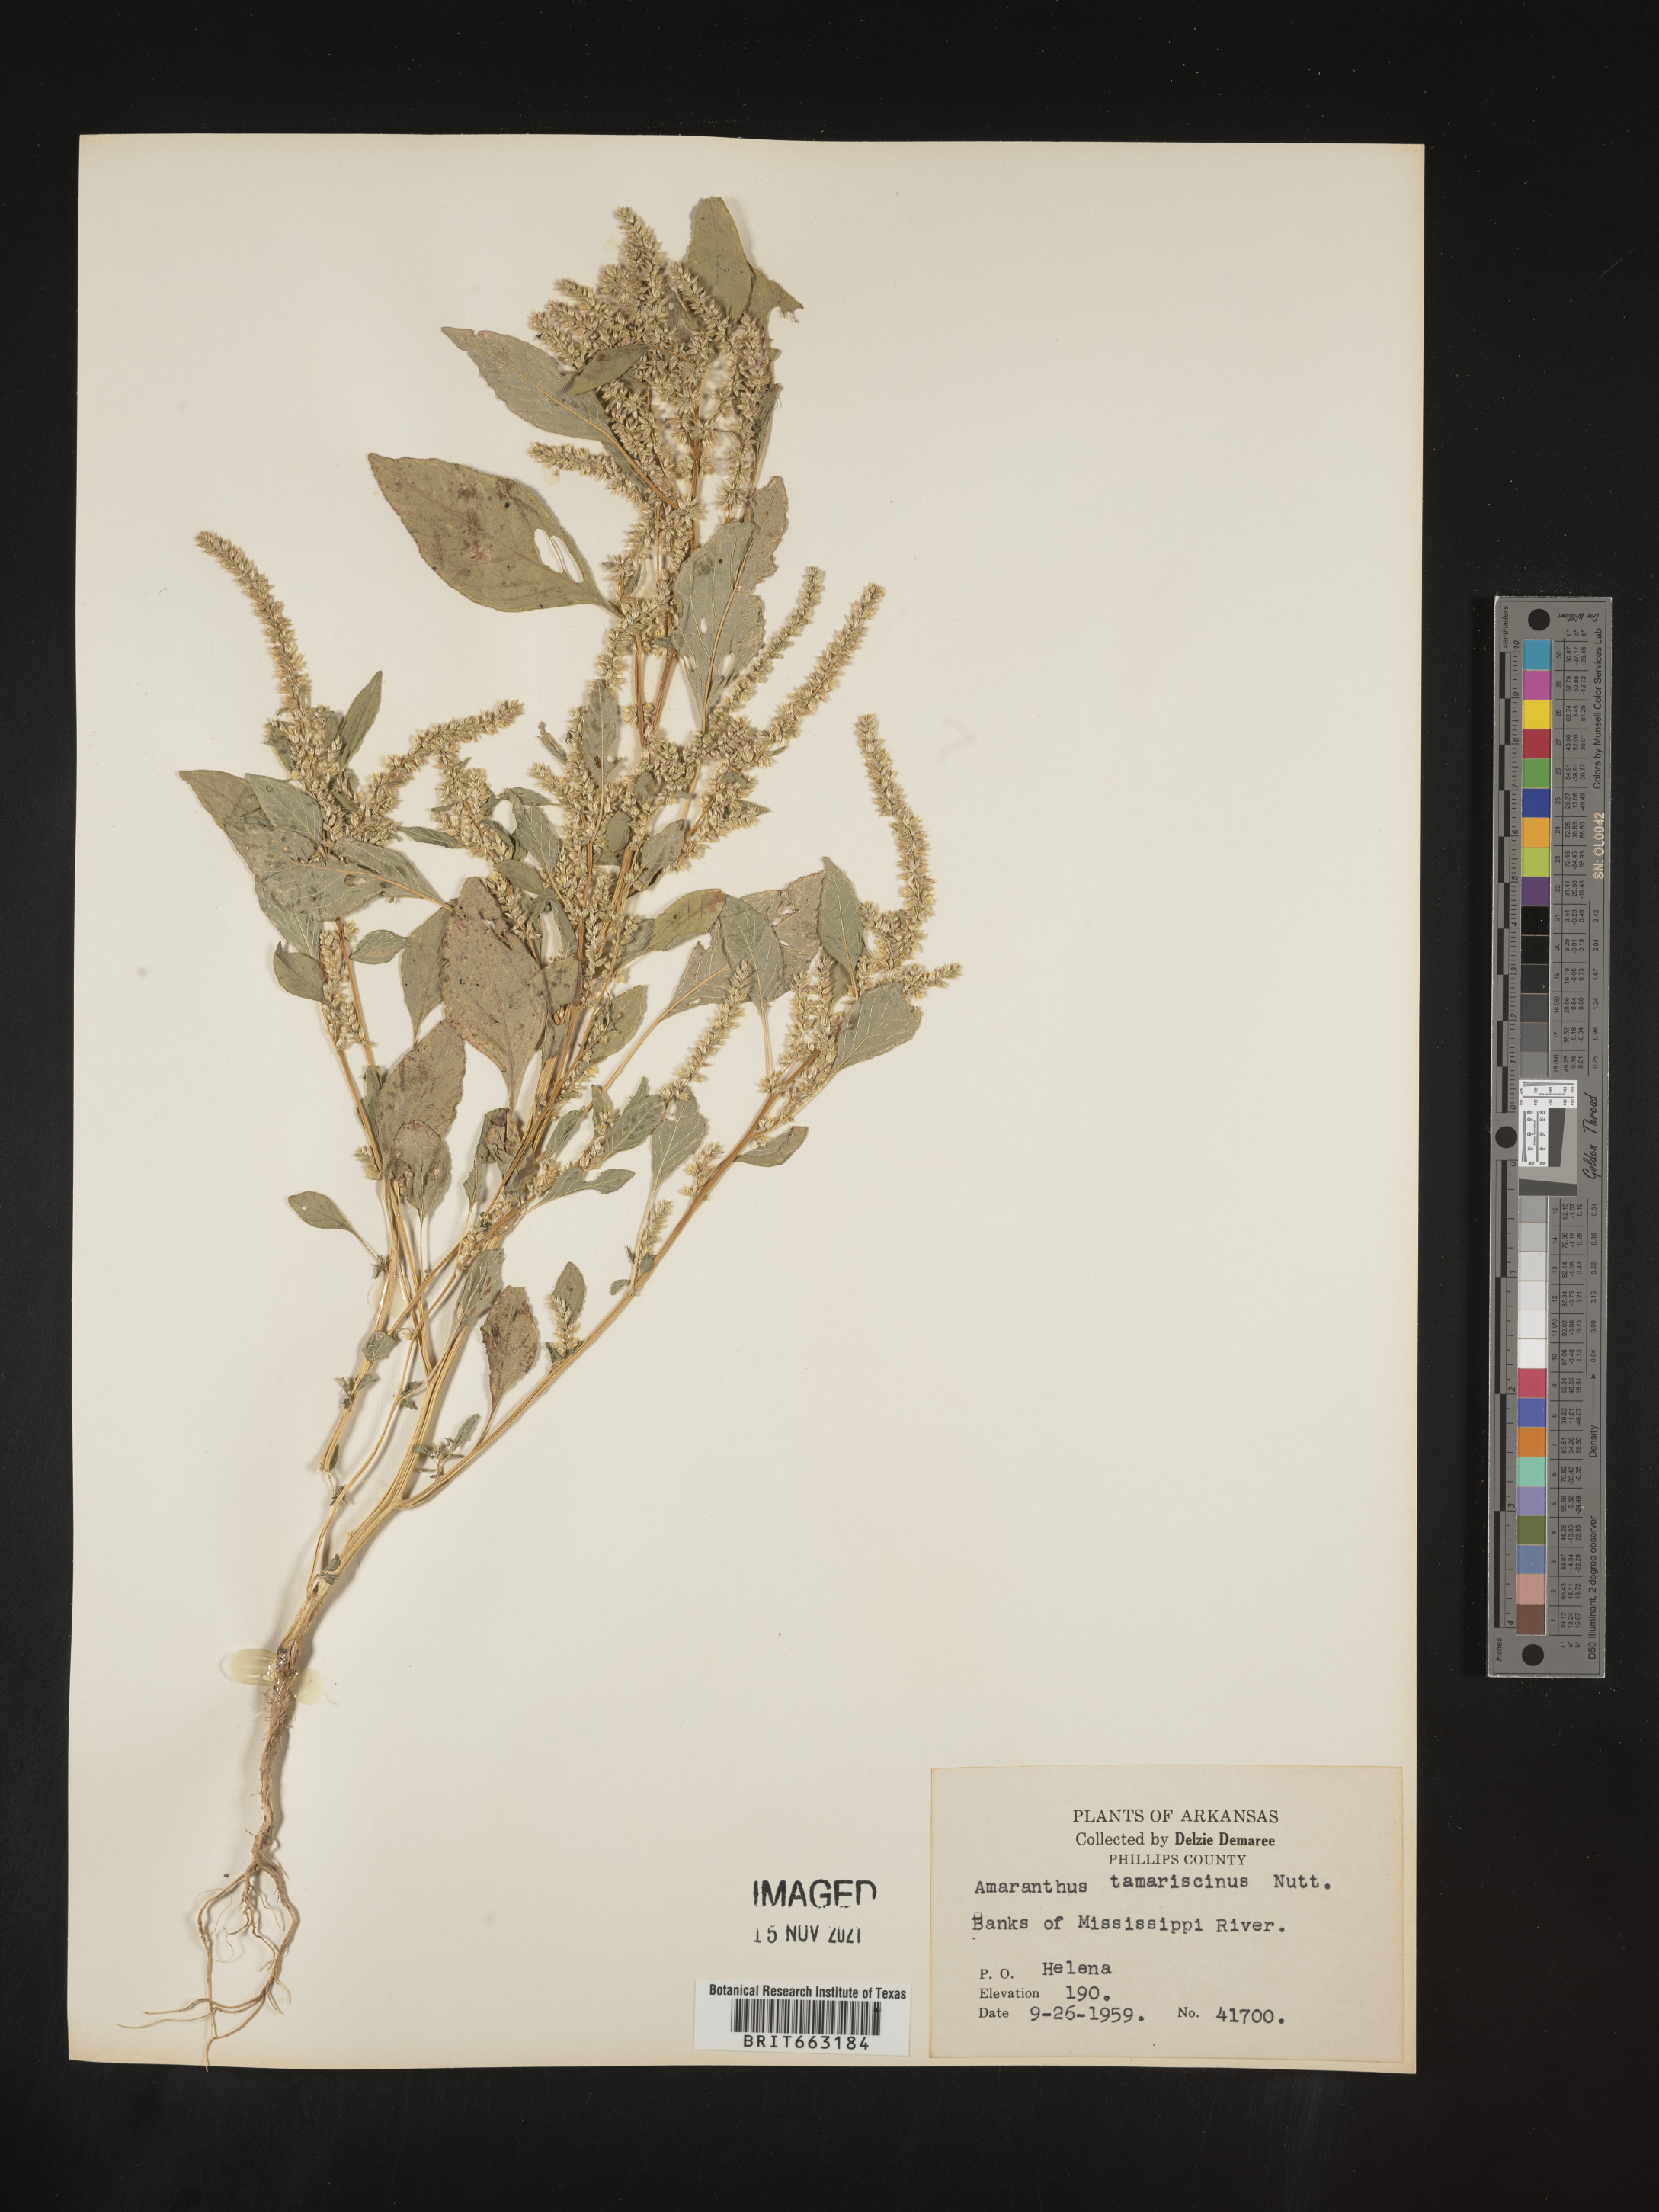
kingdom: Plantae
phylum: Tracheophyta
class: Magnoliopsida
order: Caryophyllales
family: Amaranthaceae
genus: Amaranthus
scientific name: Amaranthus tamariscinus
